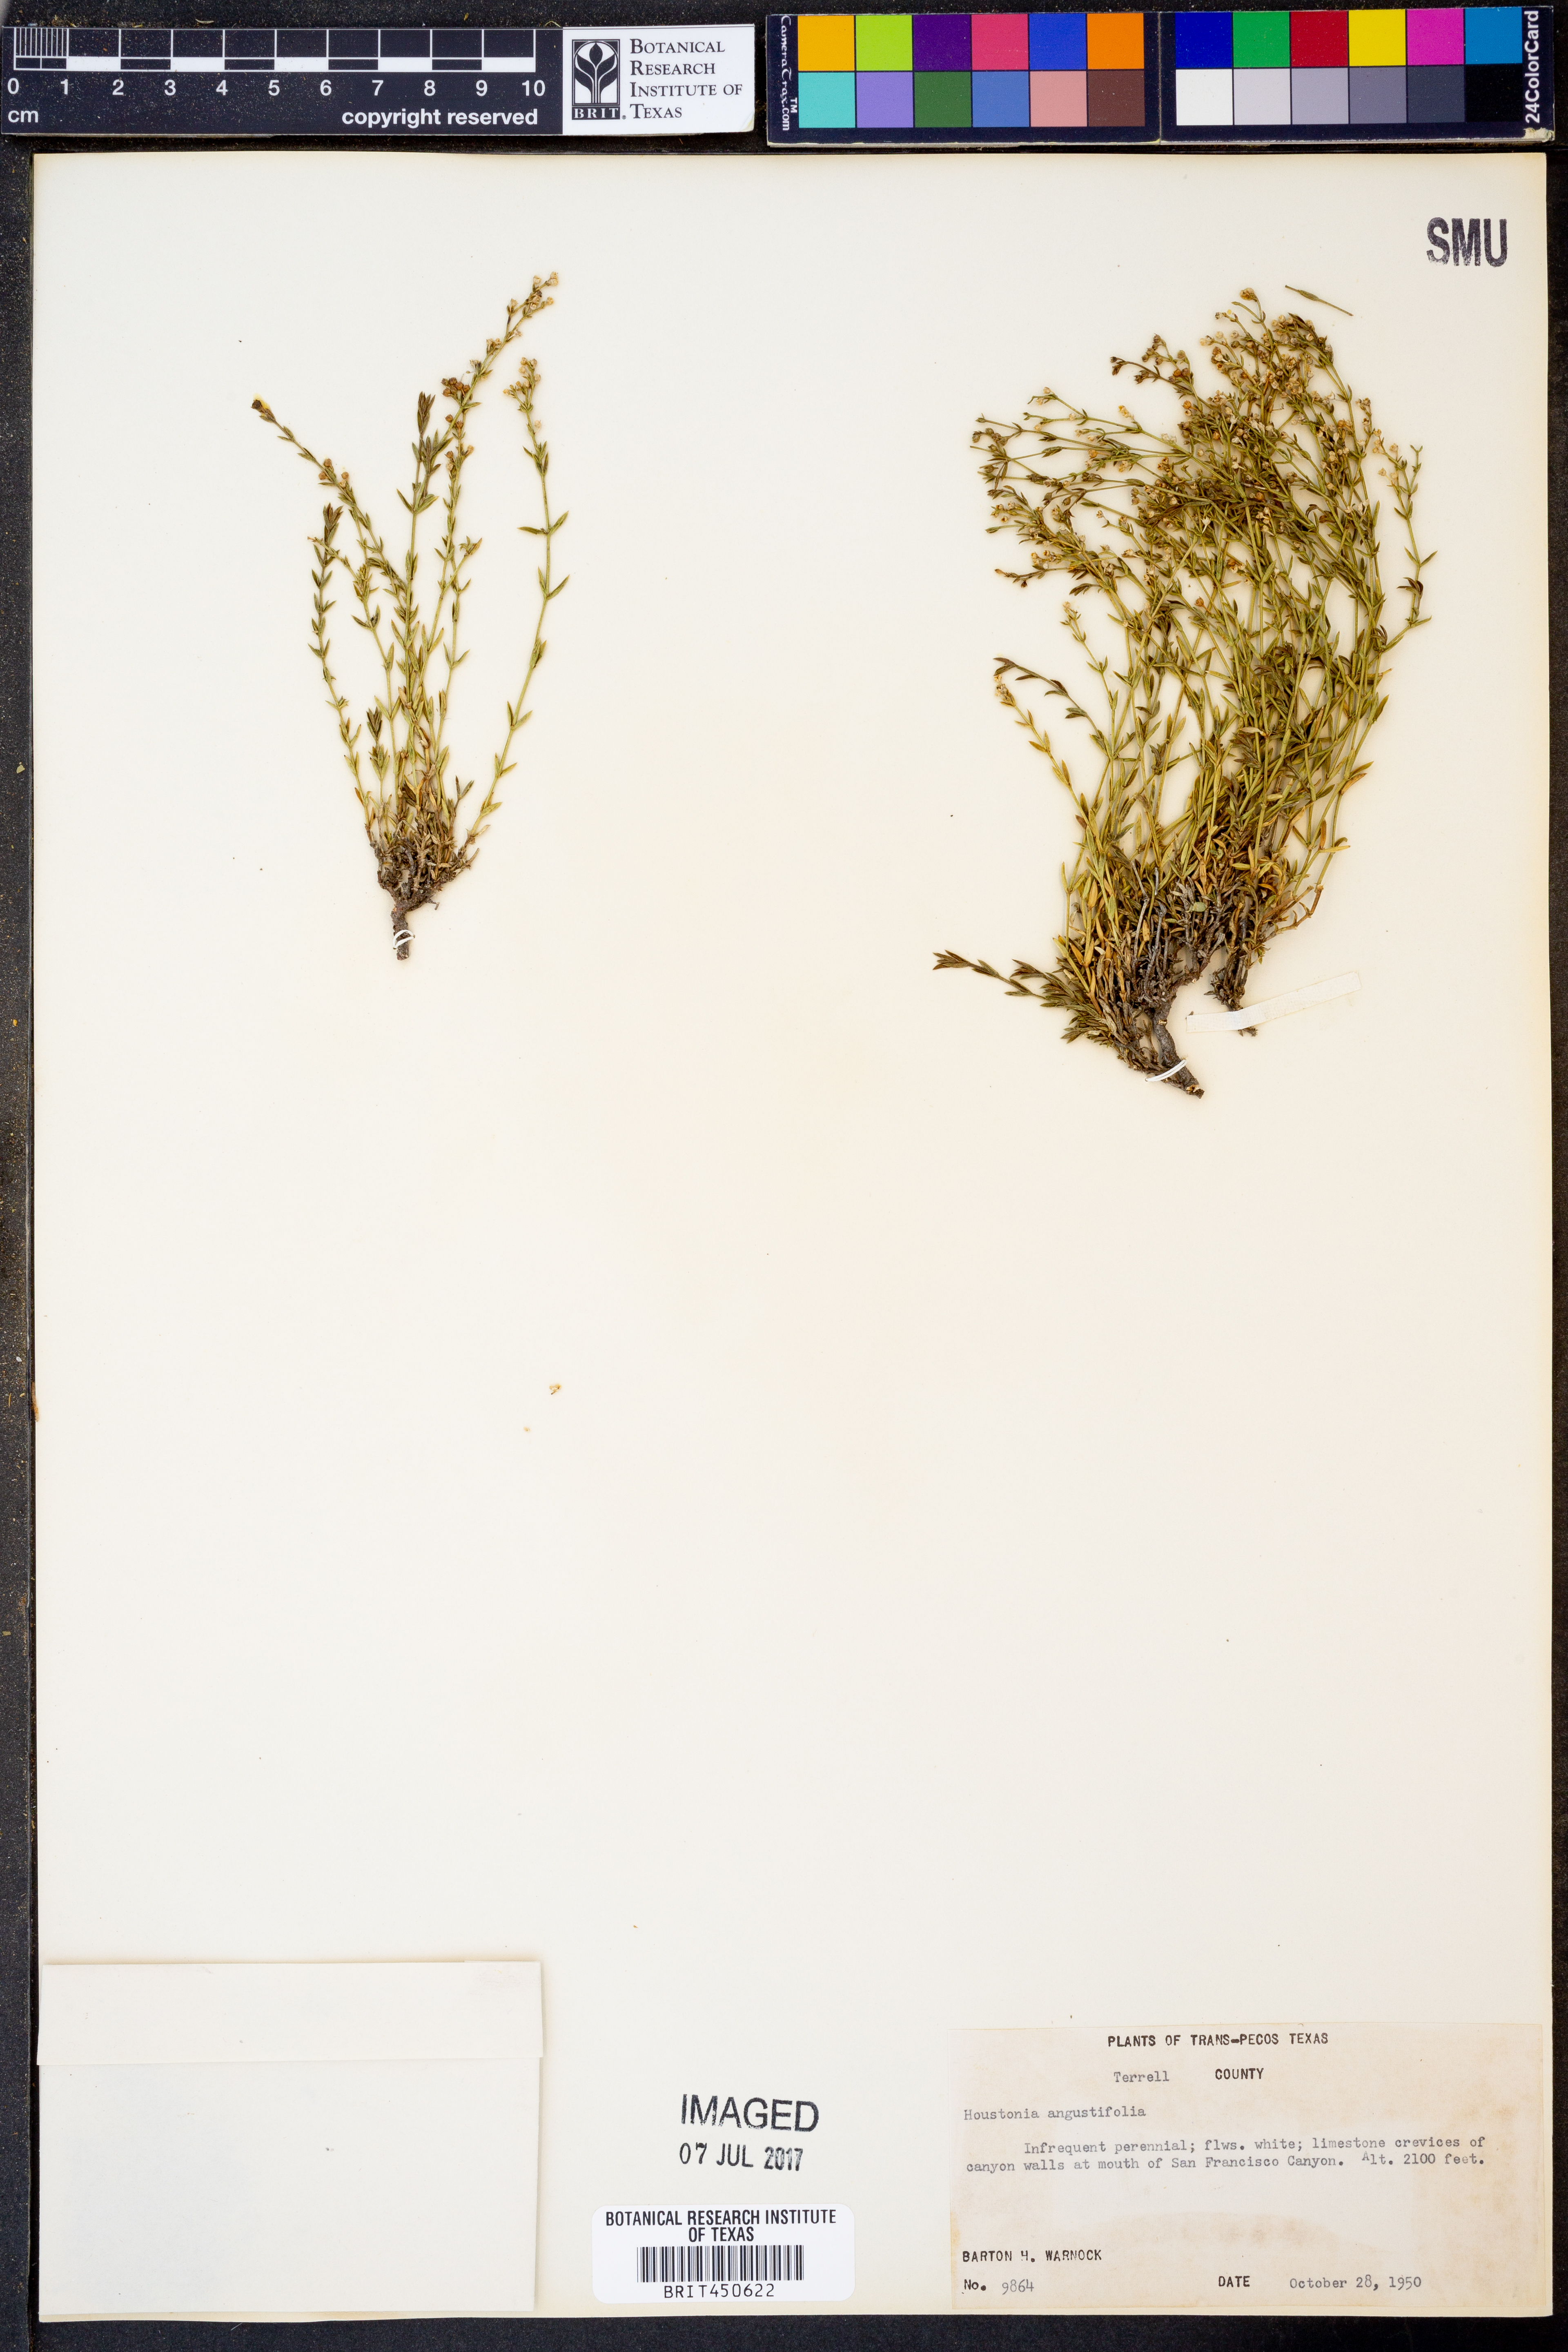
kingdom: Plantae
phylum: Tracheophyta
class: Magnoliopsida
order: Gentianales
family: Rubiaceae
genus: Stenaria
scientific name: Stenaria nigricans
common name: Diamondflowers
